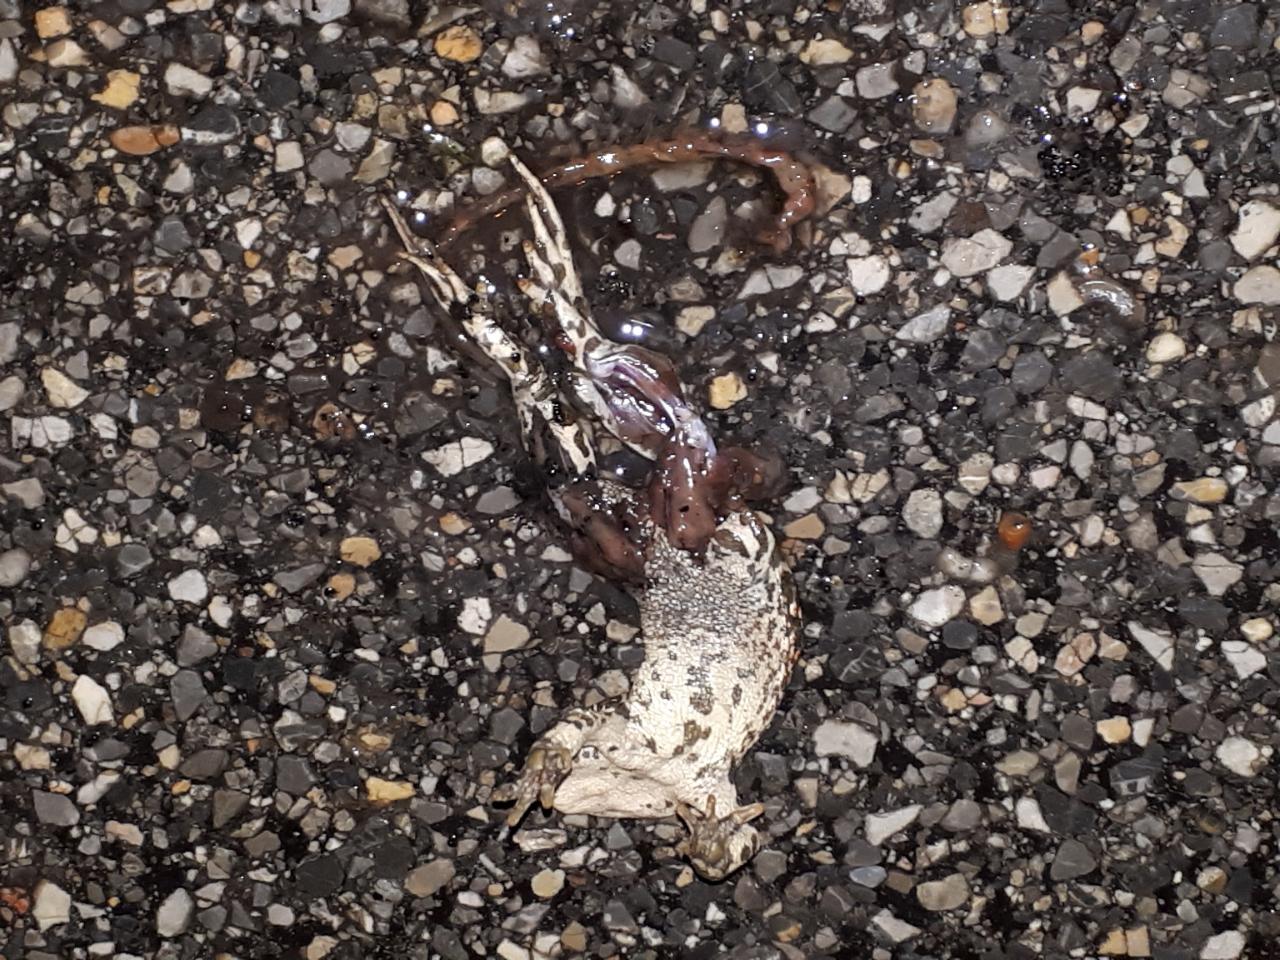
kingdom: Animalia
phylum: Chordata
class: Amphibia
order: Anura
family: Bufonidae
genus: Bufotes
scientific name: Bufotes viridis
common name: European green toad
